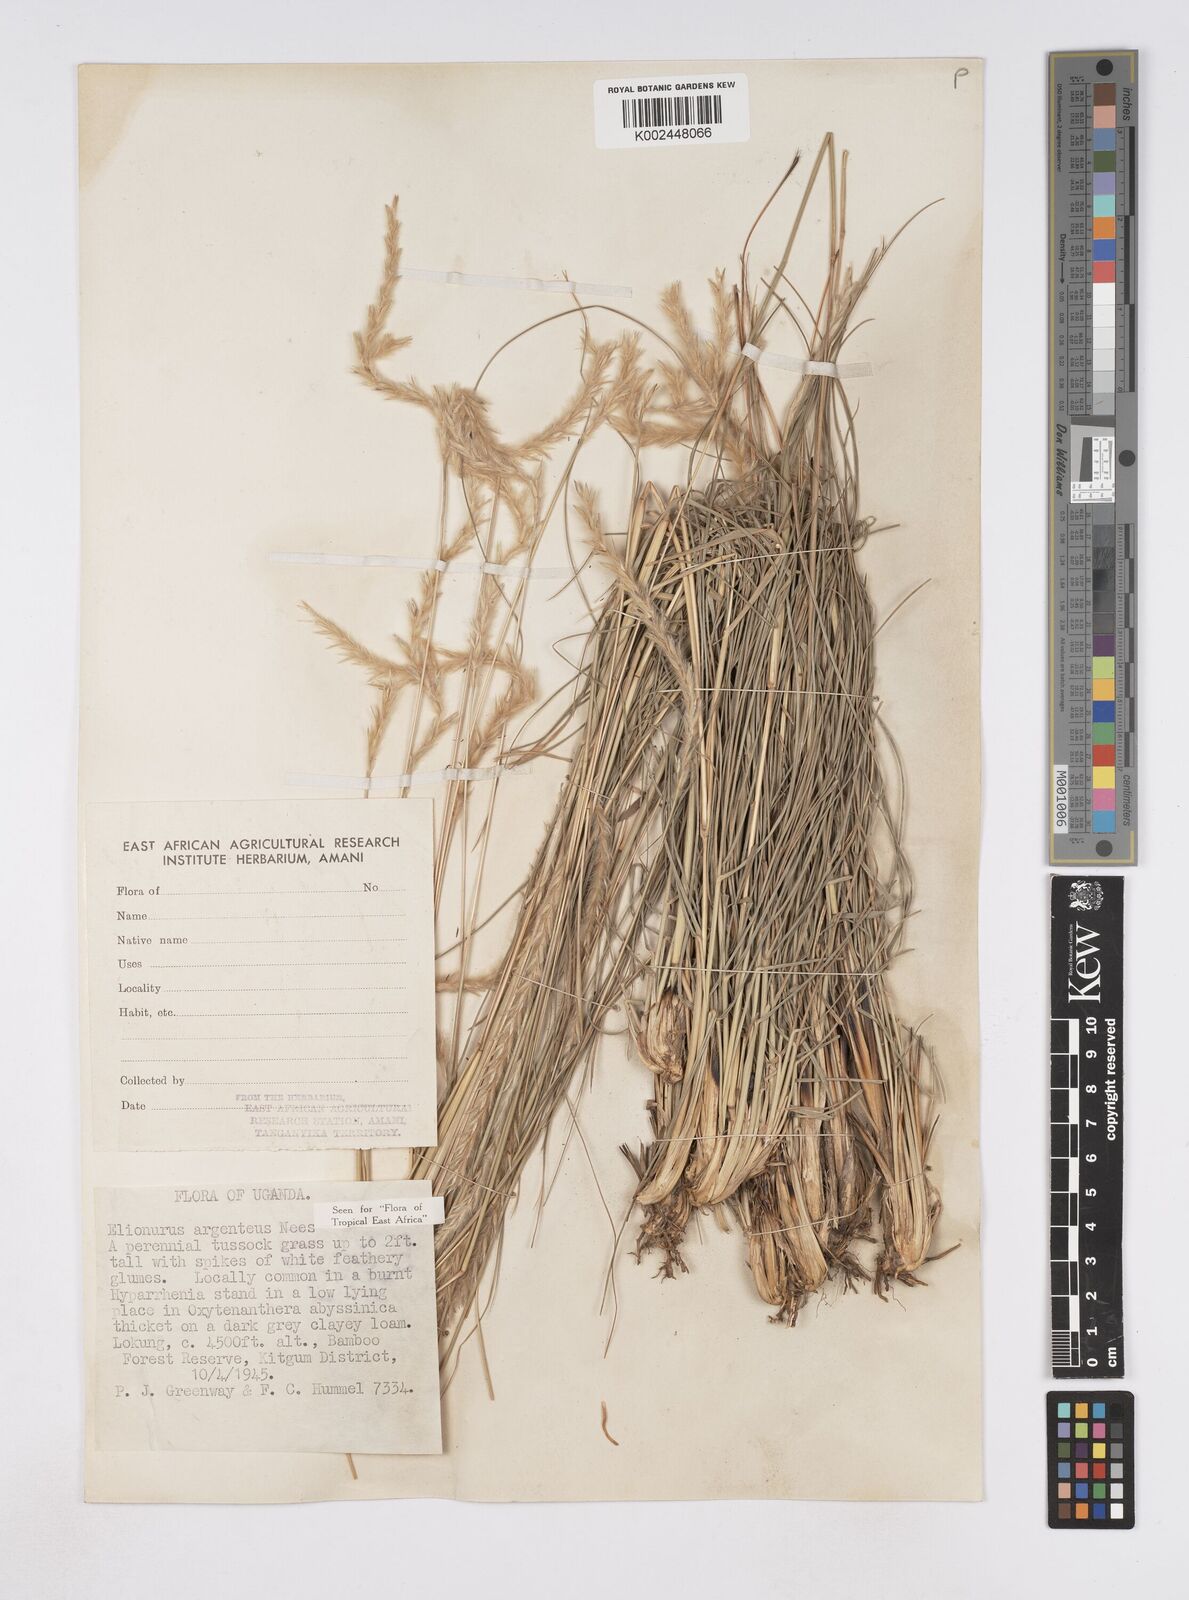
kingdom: Plantae
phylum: Tracheophyta
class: Liliopsida
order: Poales
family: Poaceae
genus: Elionurus
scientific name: Elionurus muticus
